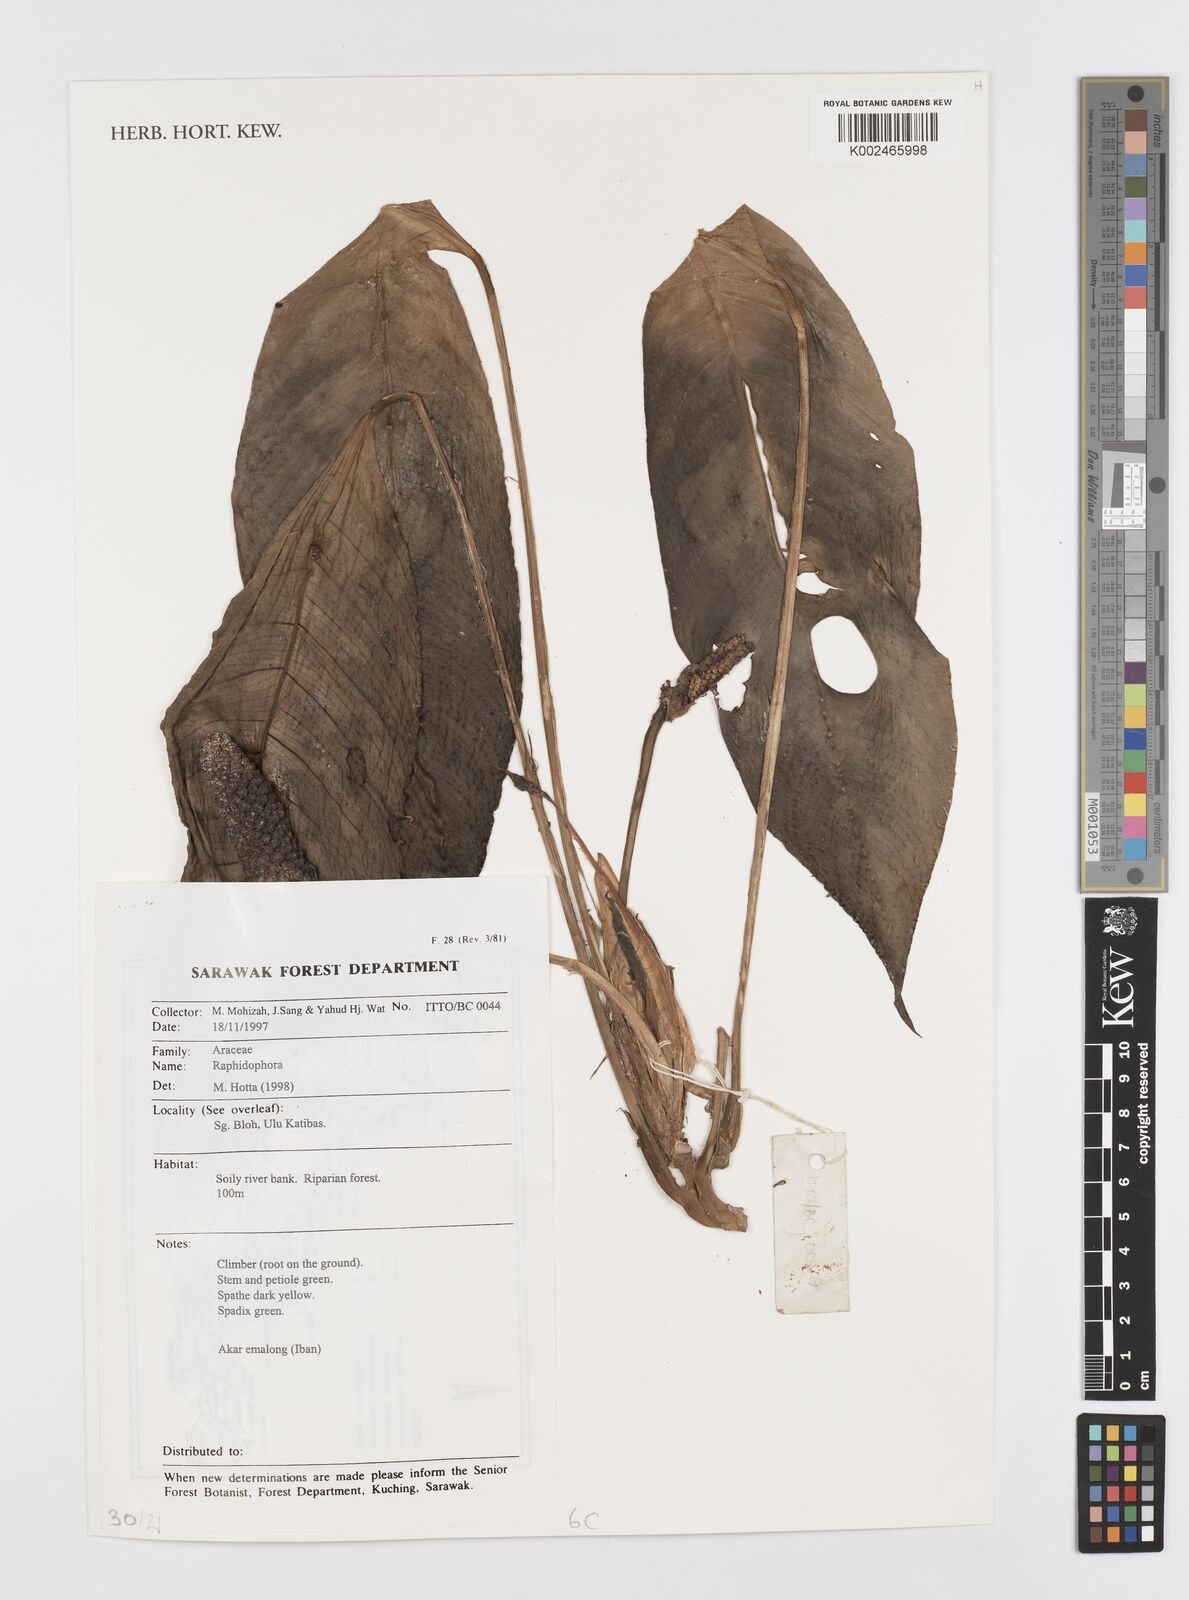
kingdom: Plantae
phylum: Tracheophyta
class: Liliopsida
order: Alismatales
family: Araceae
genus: Rhaphidophora
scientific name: Rhaphidophora
